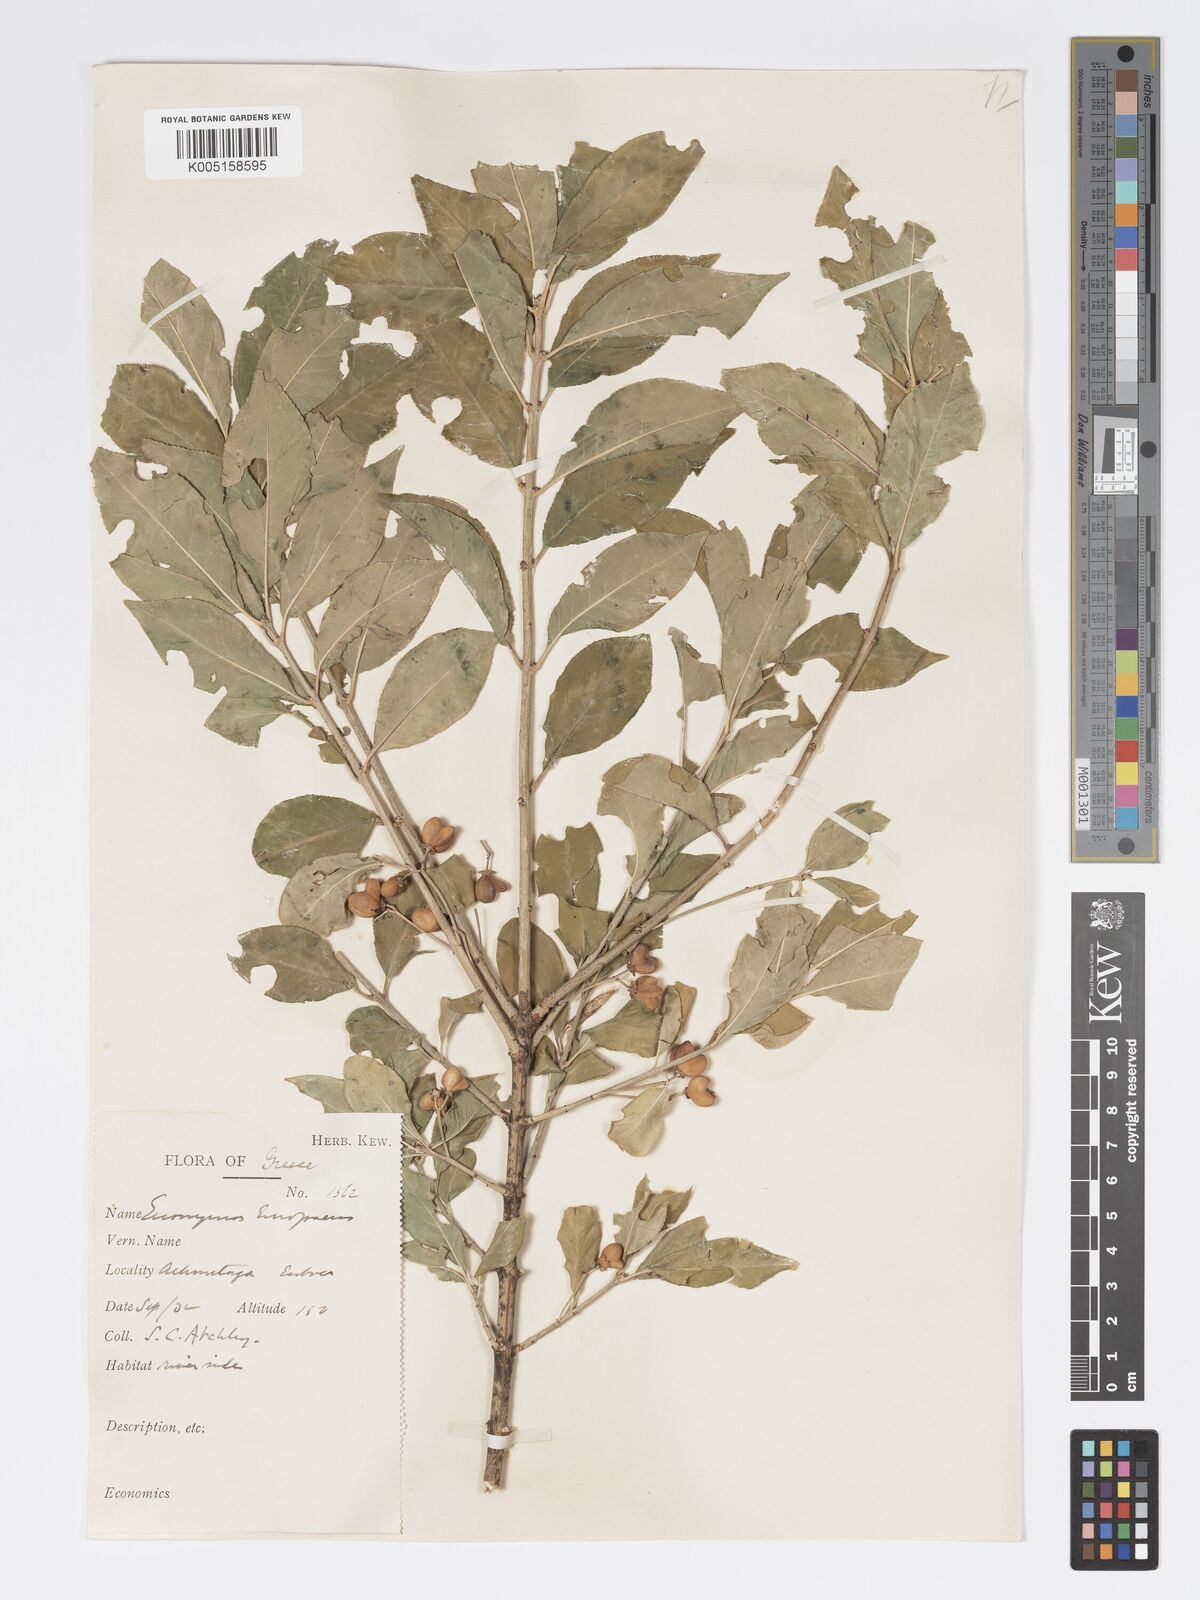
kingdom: Plantae
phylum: Tracheophyta
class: Magnoliopsida
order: Celastrales
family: Celastraceae
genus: Euonymus
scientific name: Euonymus europaeus
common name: Spindle
